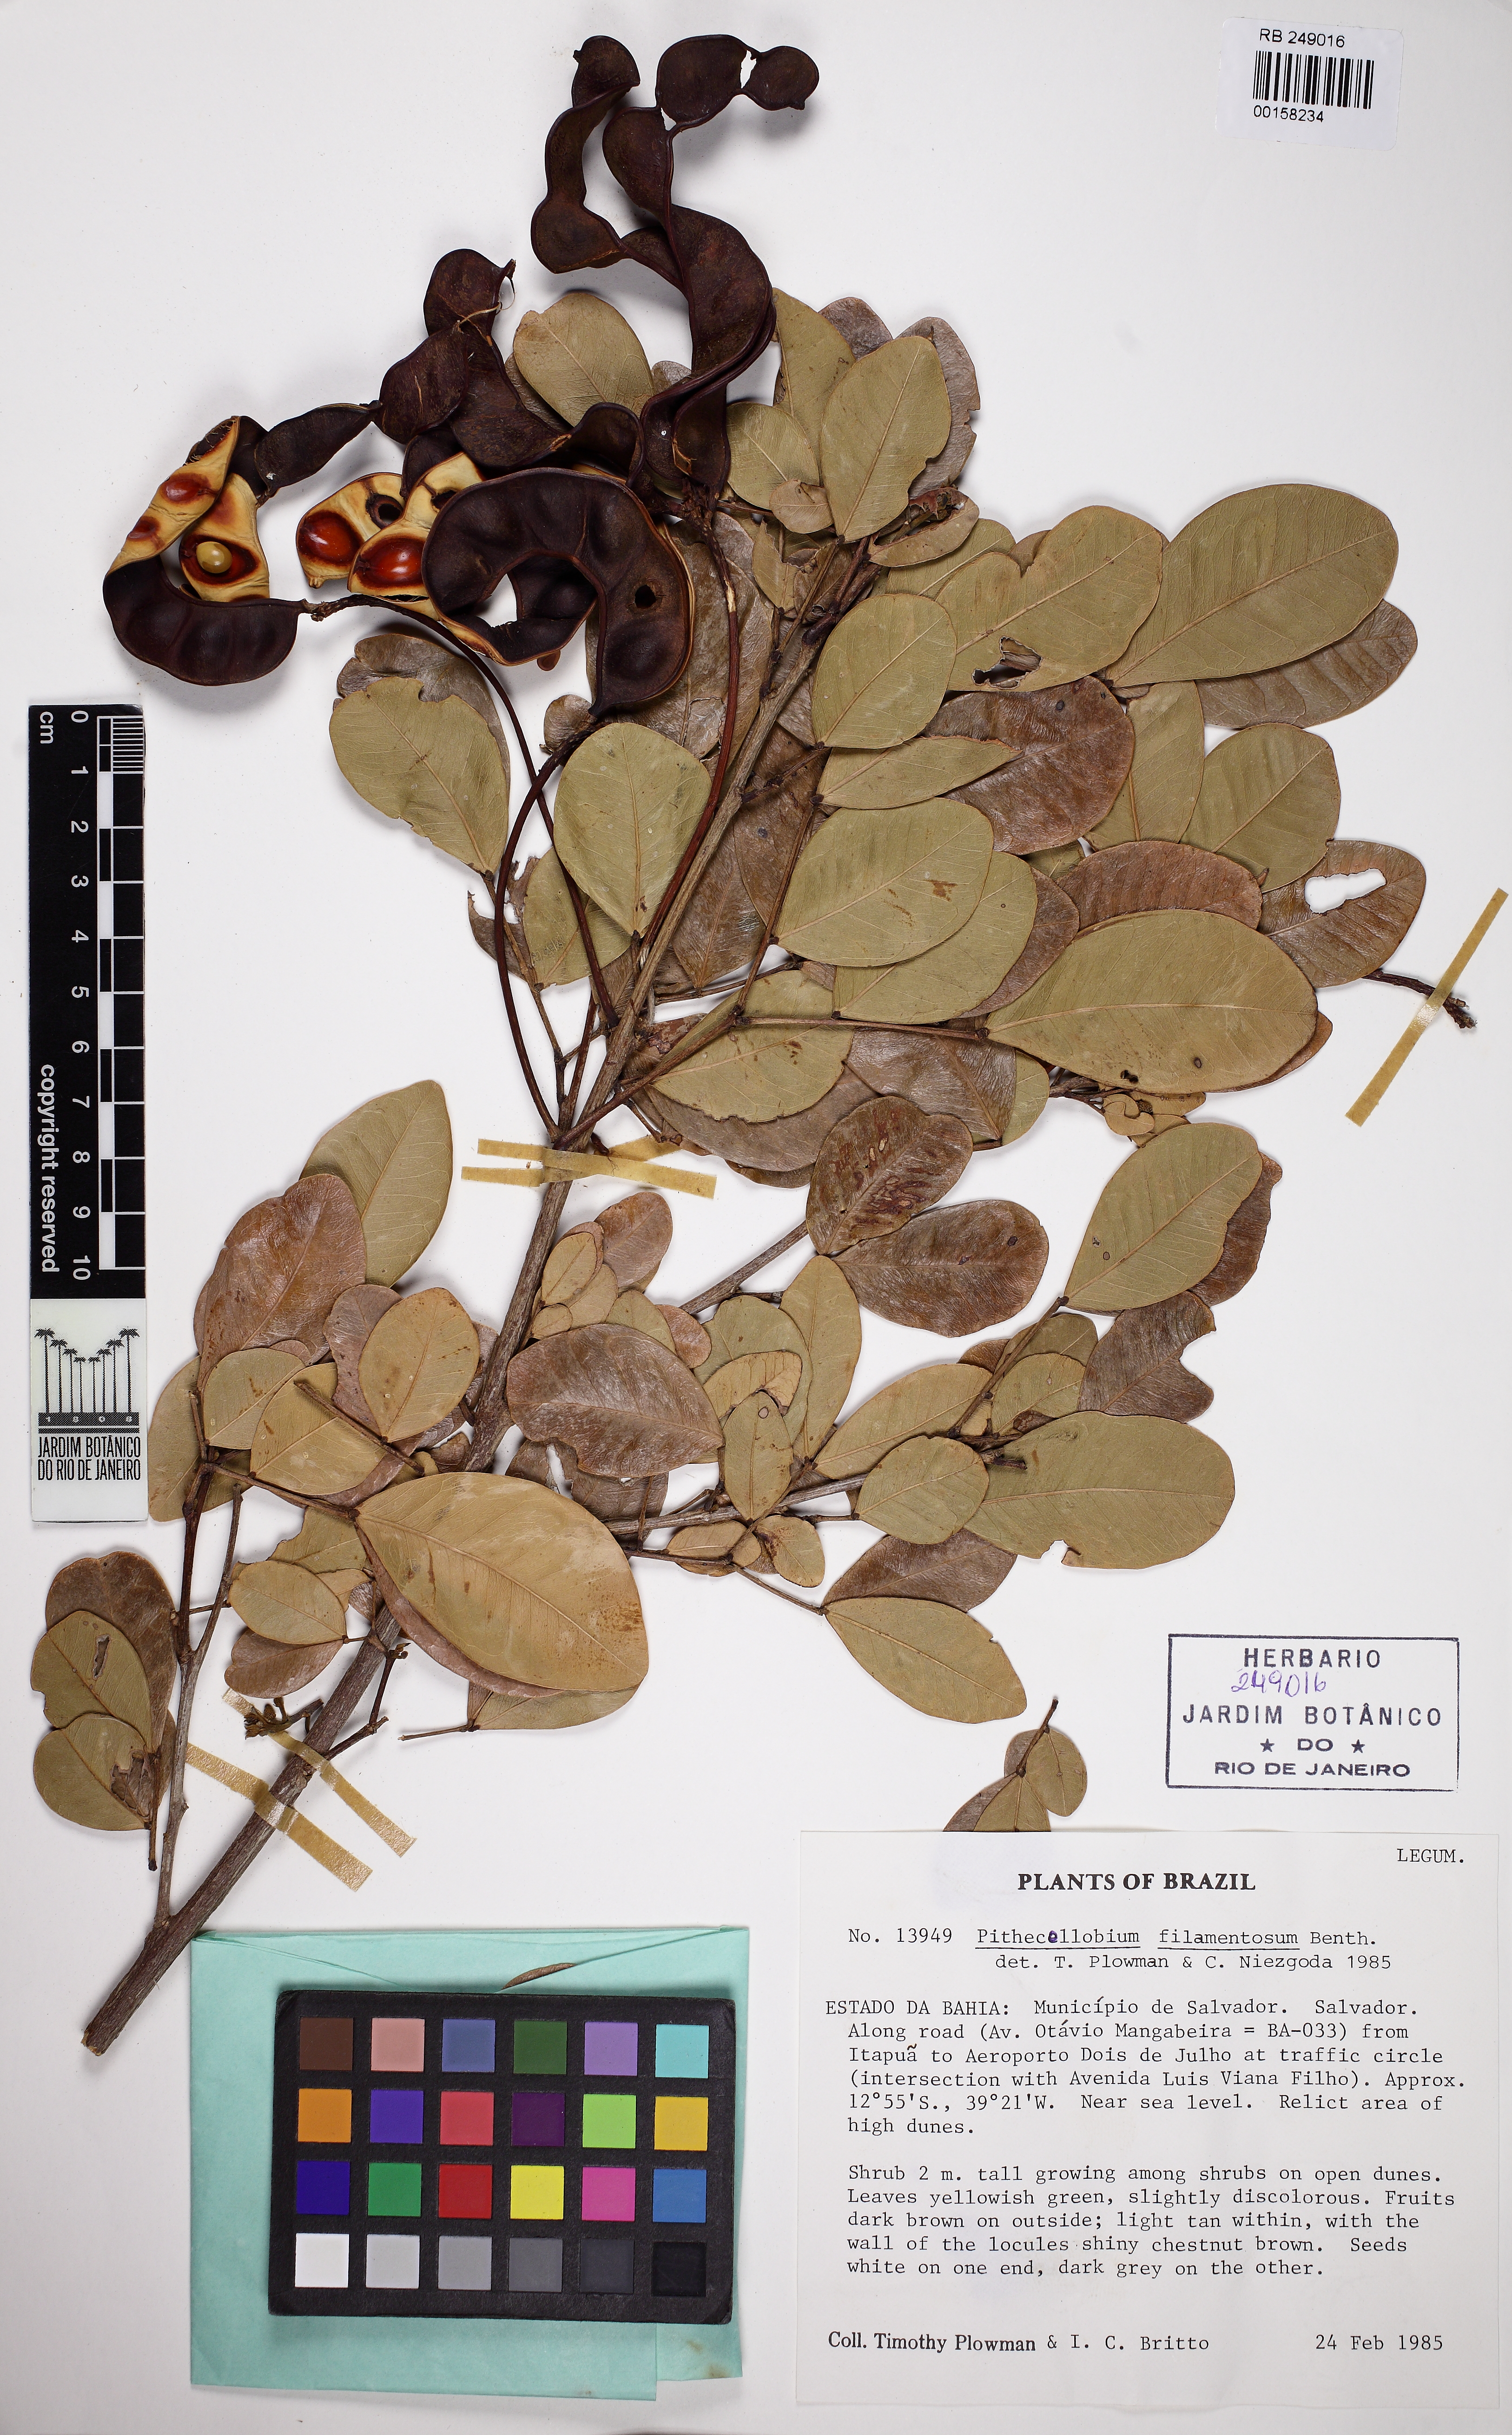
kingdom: Plantae
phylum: Tracheophyta
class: Magnoliopsida
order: Fabales
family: Fabaceae
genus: Chloroleucon
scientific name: Chloroleucon foliolosum
